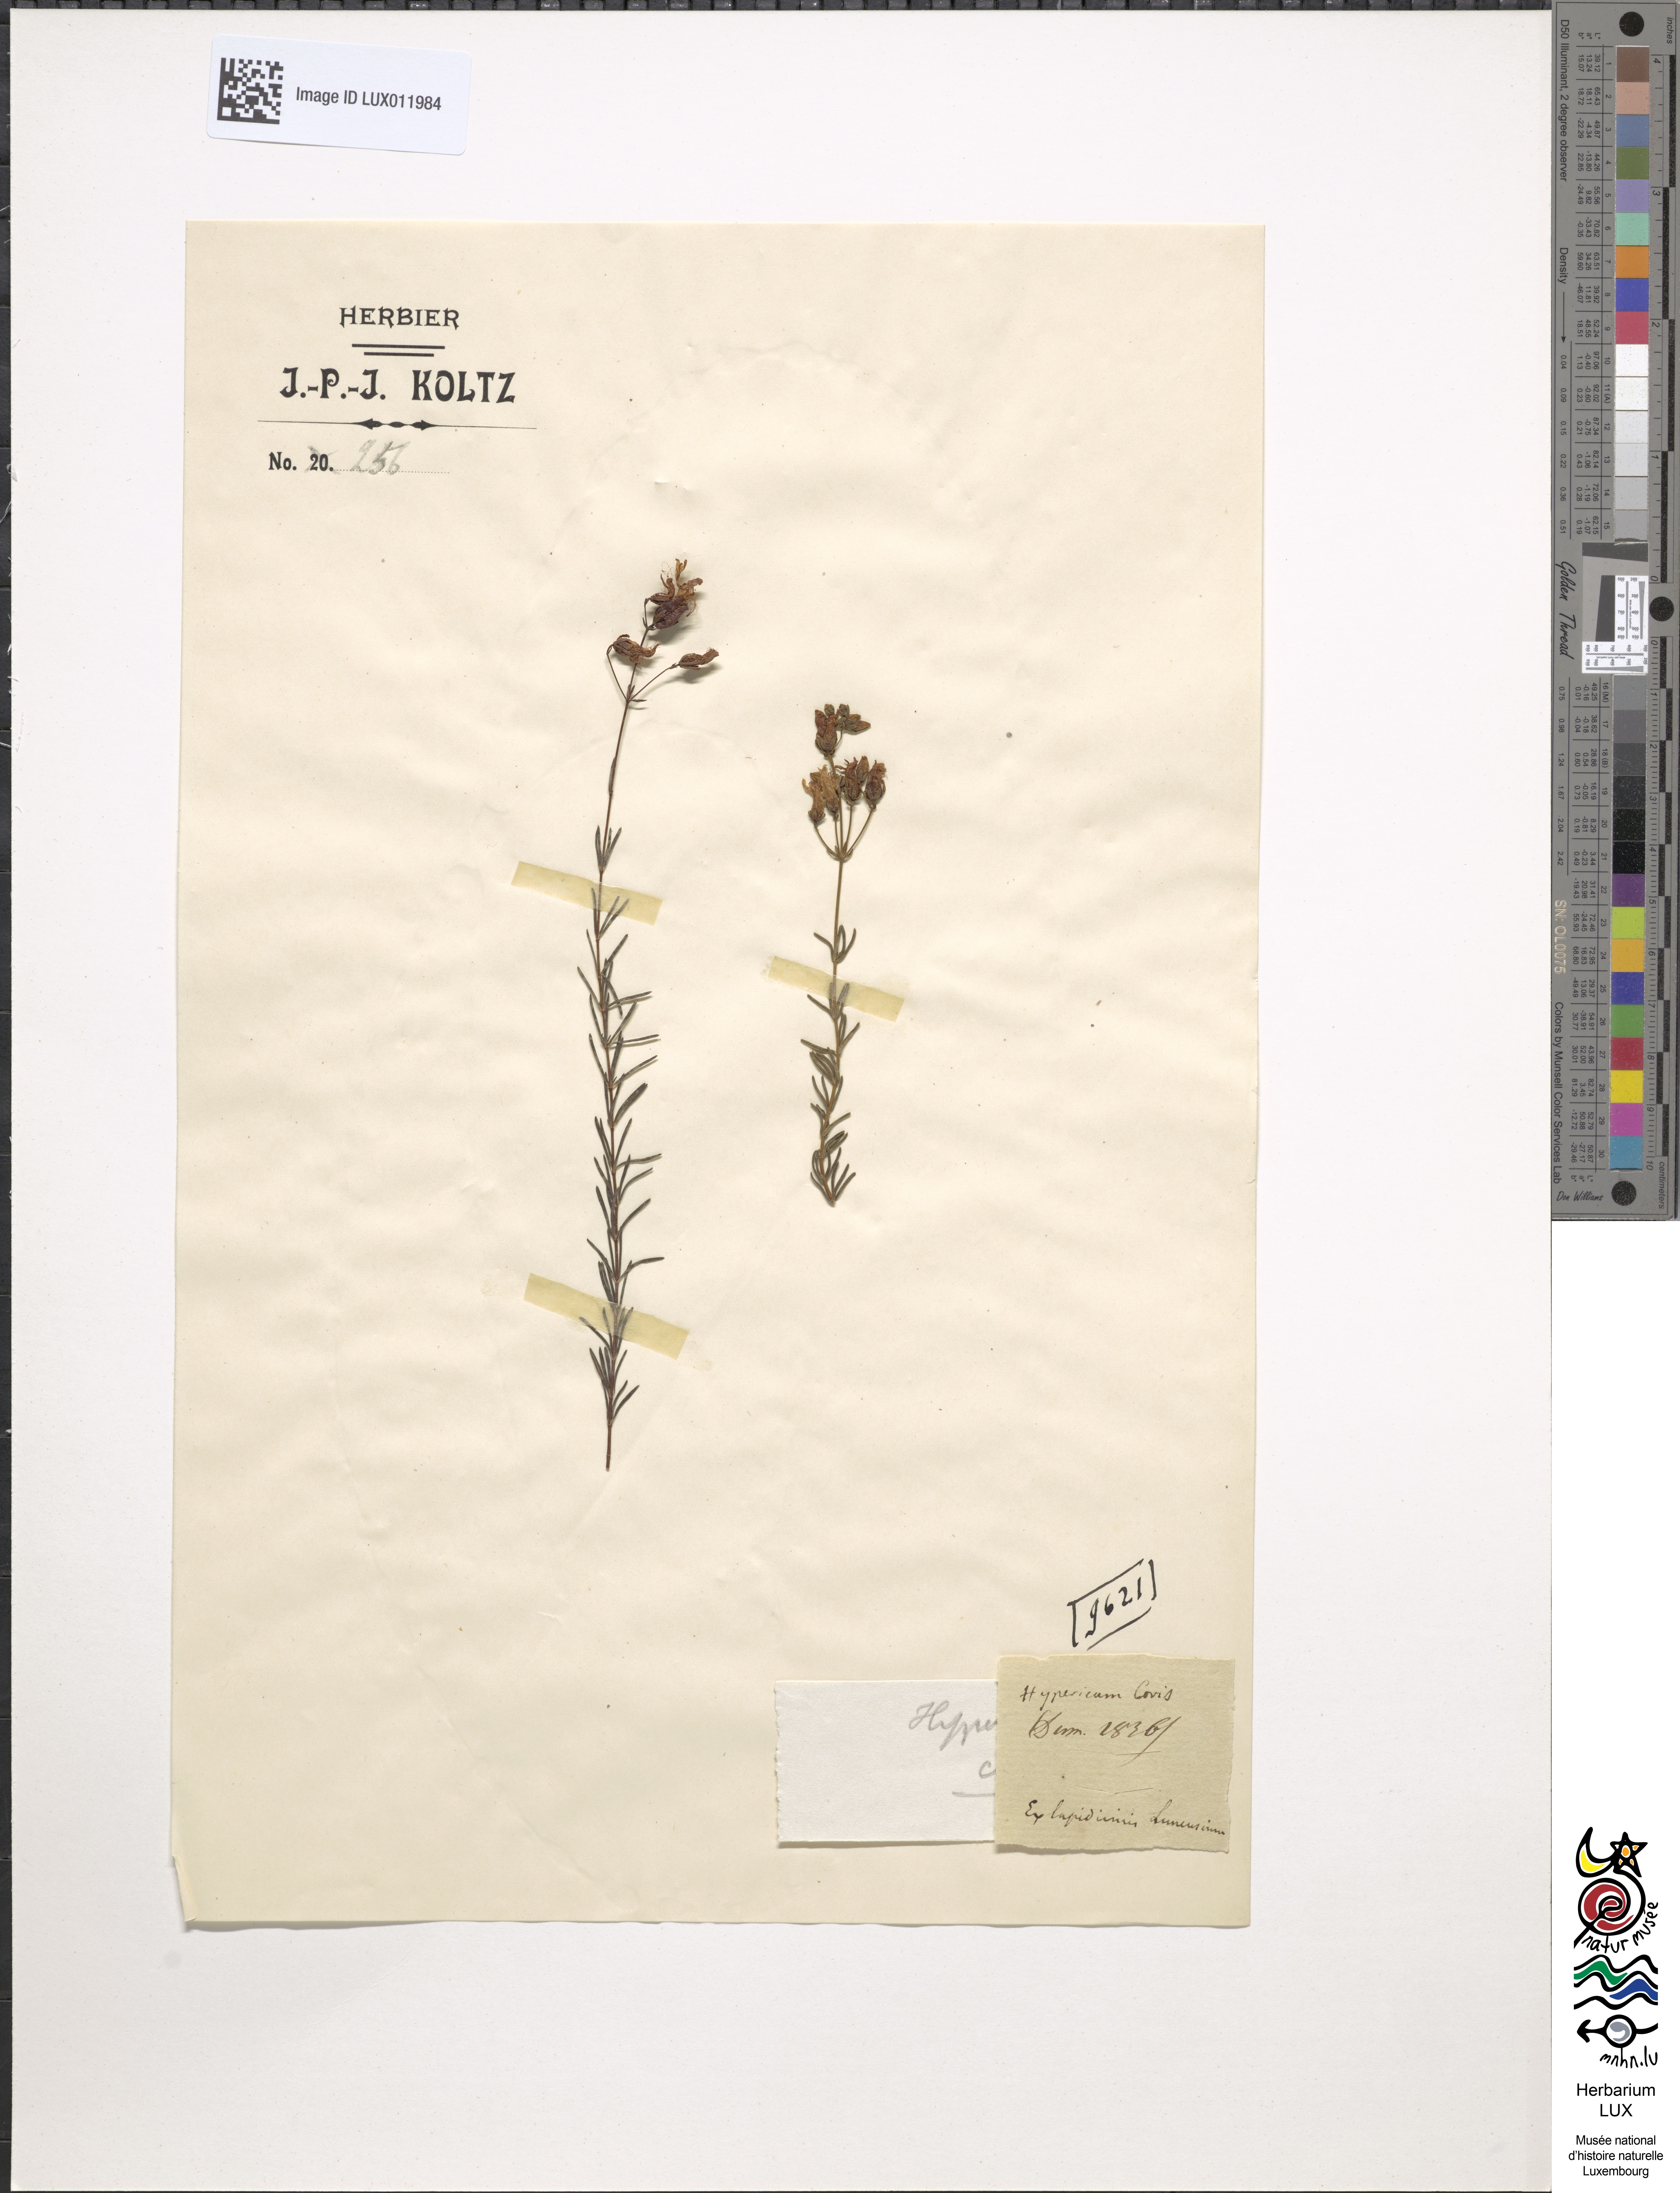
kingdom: Plantae
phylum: Tracheophyta
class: Magnoliopsida
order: Malpighiales
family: Hypericaceae
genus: Hypericum
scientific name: Hypericum coris
